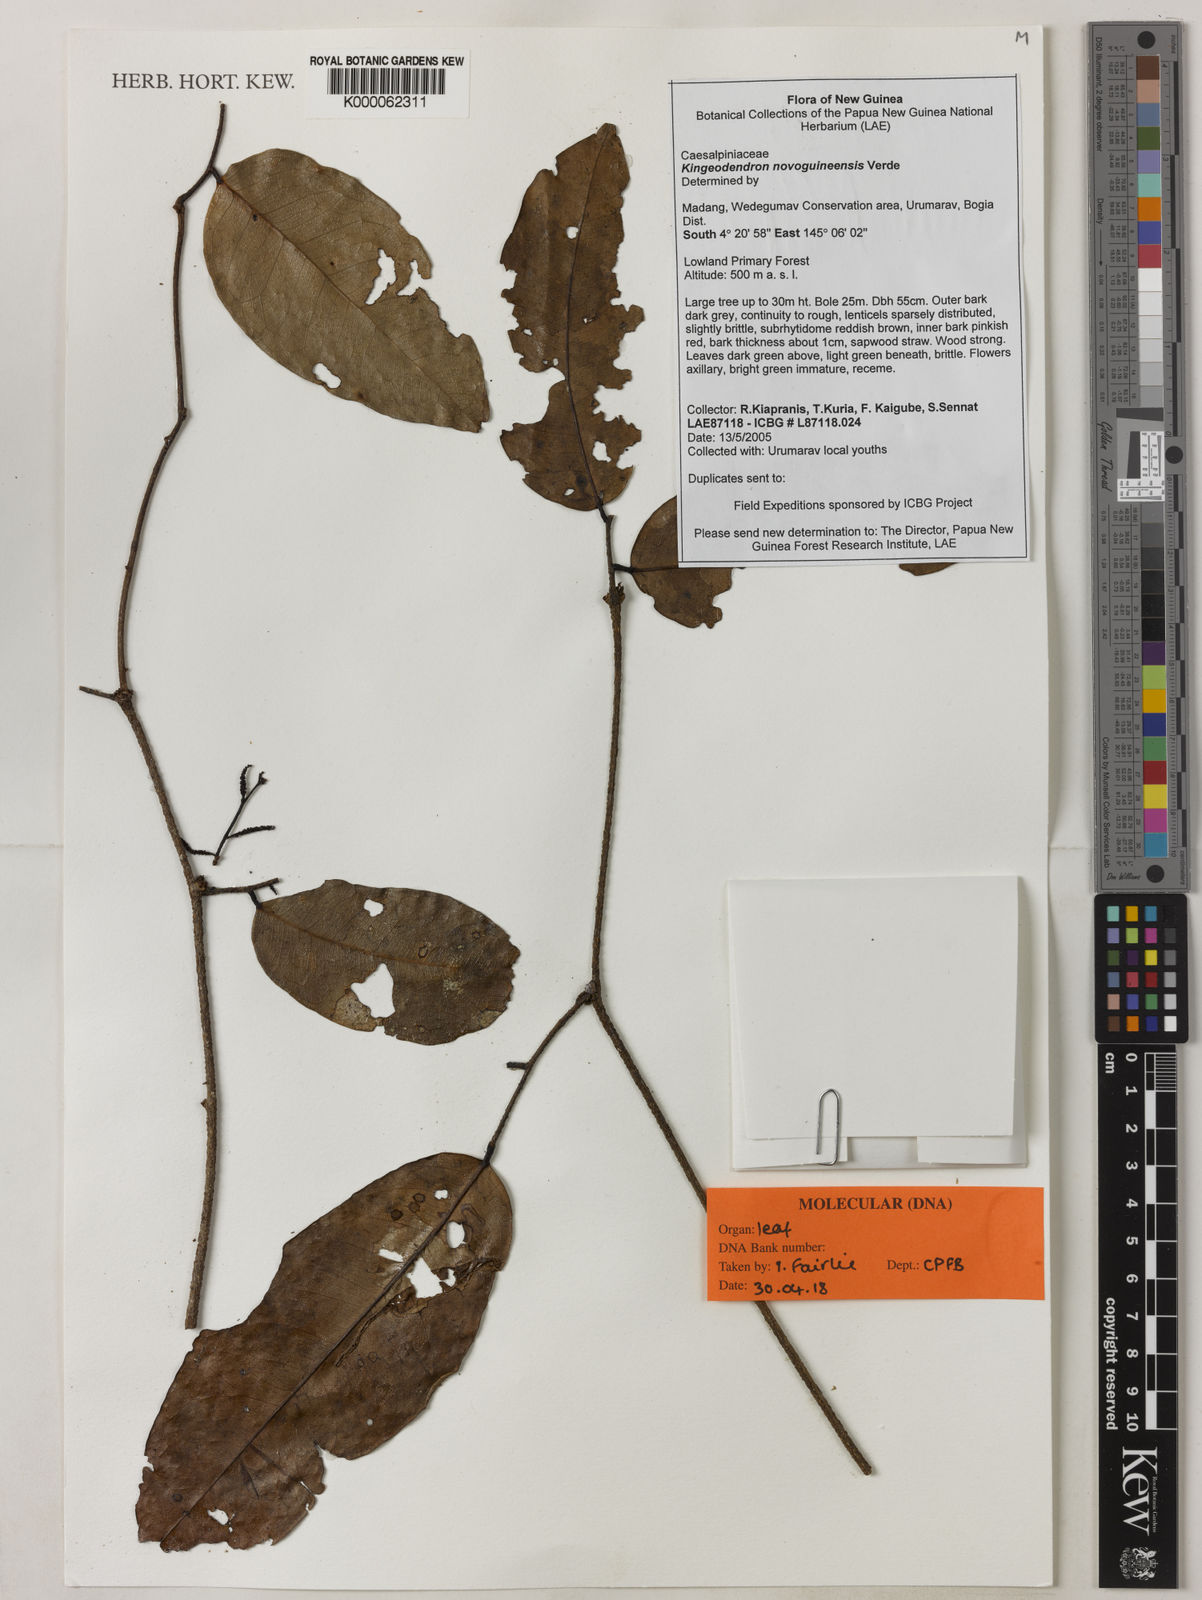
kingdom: Plantae
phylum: Tracheophyta
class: Magnoliopsida
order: Fabales
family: Fabaceae
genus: Prioria
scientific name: Prioria
